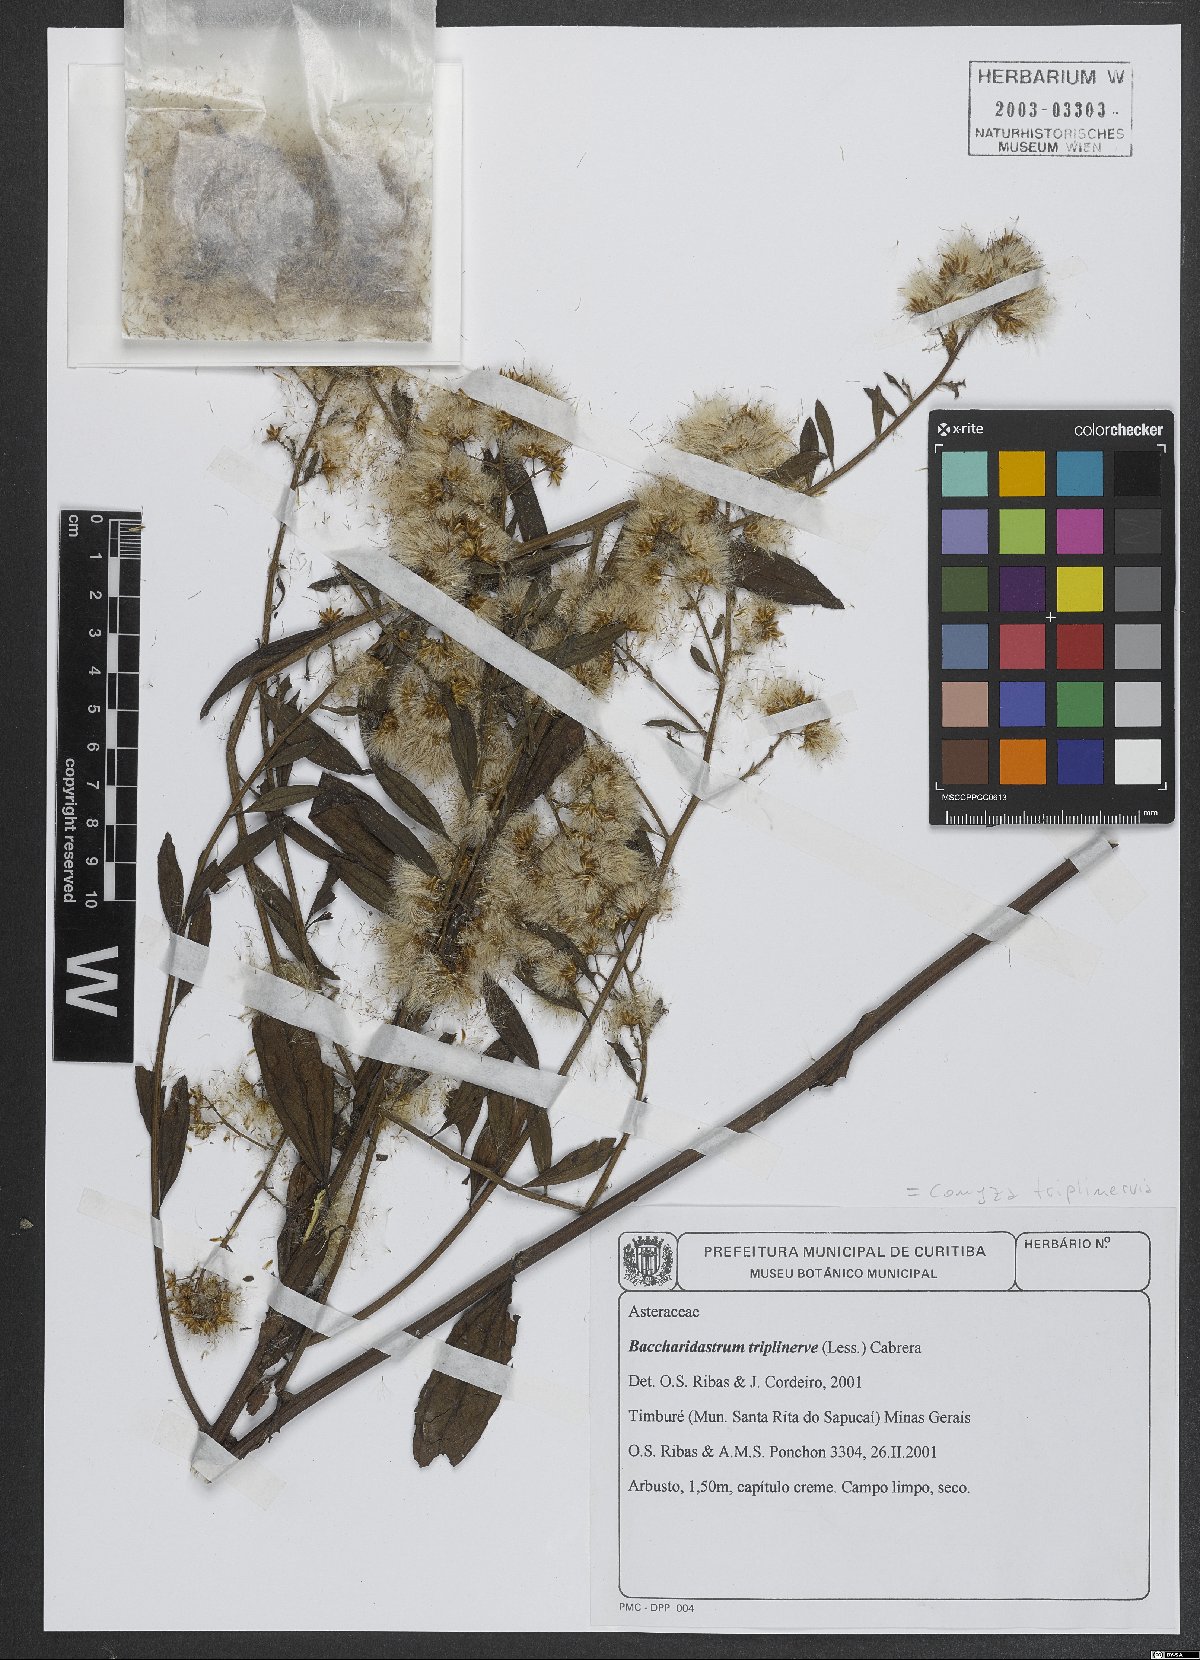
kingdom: Plantae
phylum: Tracheophyta
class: Magnoliopsida
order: Asterales
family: Asteraceae
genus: Archibaccharis
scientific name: Archibaccharis vulneraria
